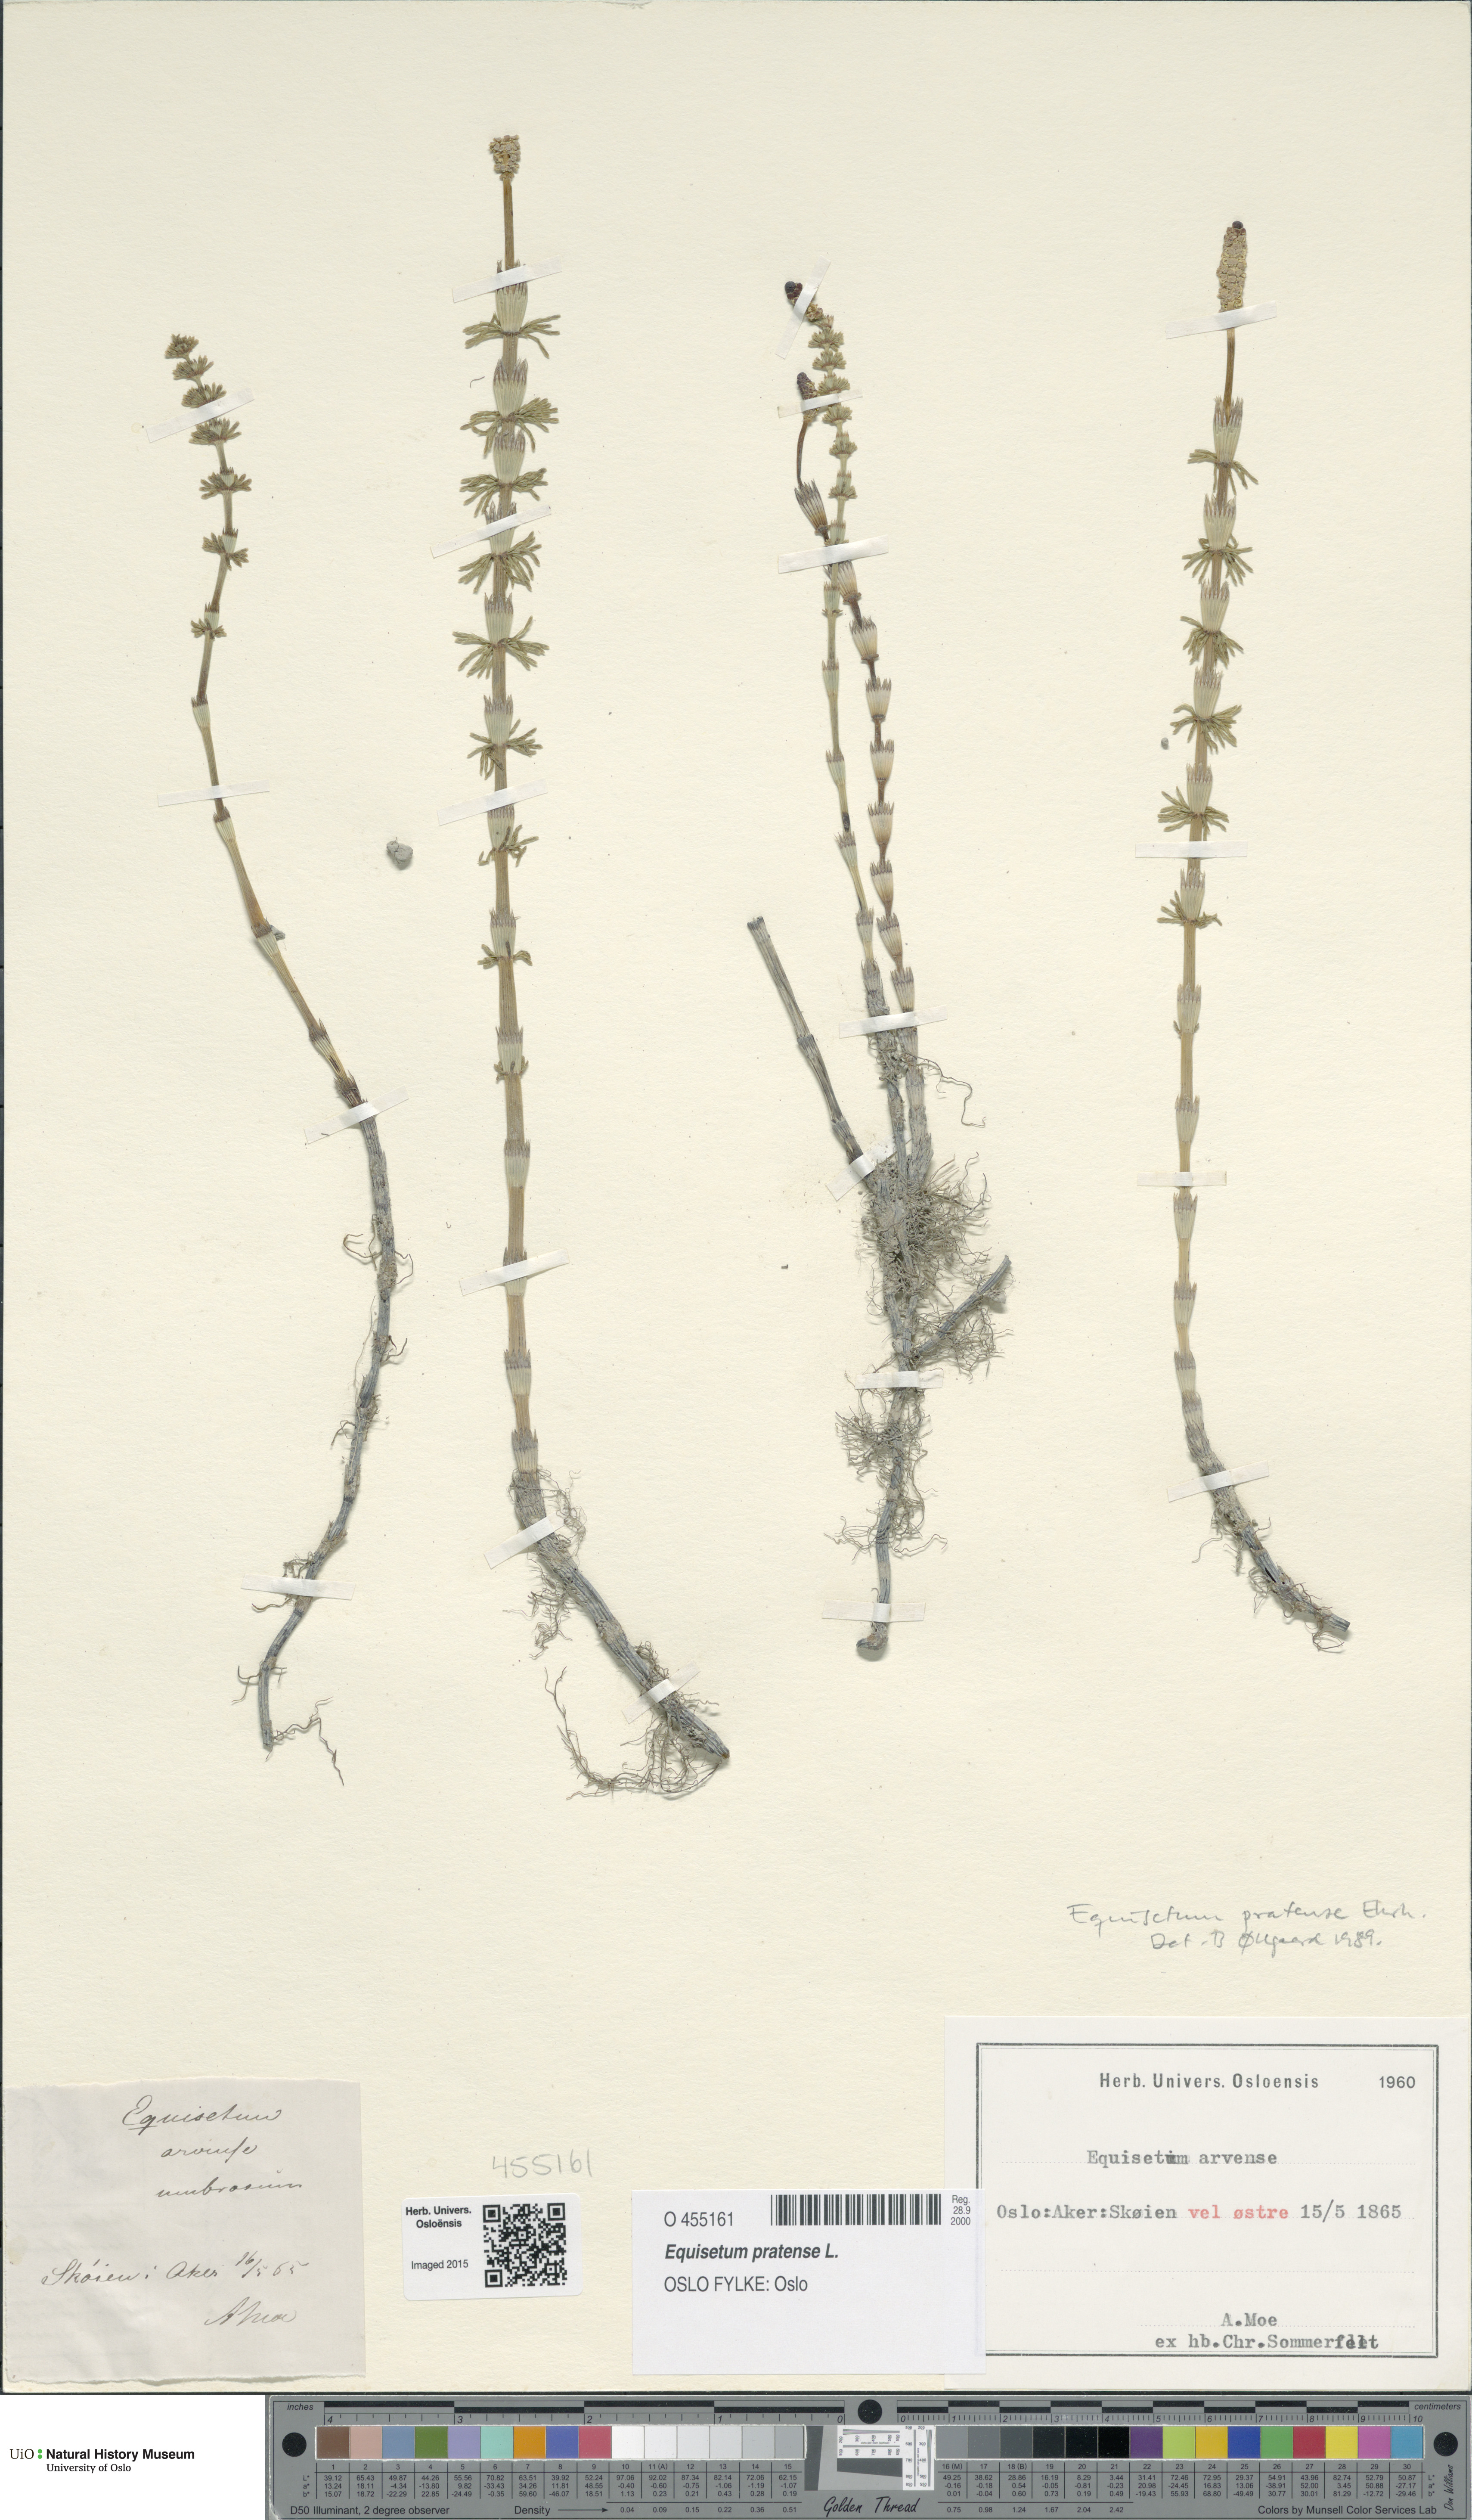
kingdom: Plantae
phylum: Tracheophyta
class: Polypodiopsida
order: Equisetales
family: Equisetaceae
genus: Equisetum
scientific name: Equisetum pratense
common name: Meadow horsetail
